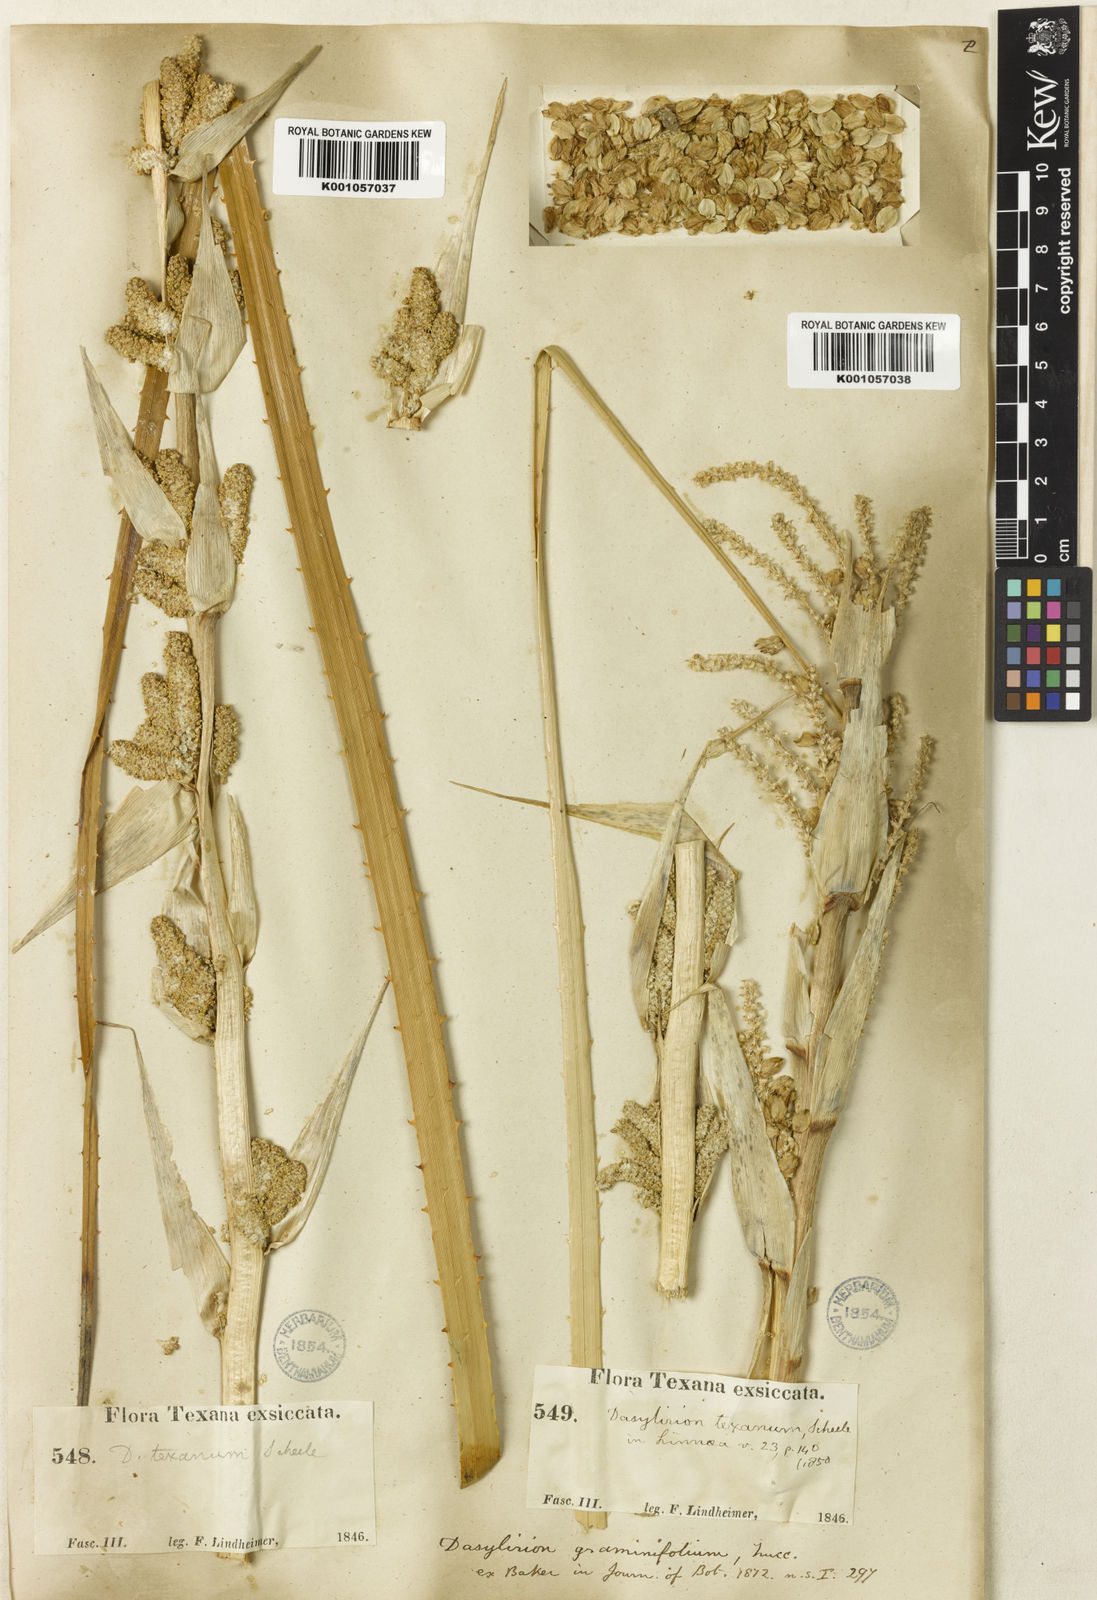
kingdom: Plantae
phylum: Tracheophyta
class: Liliopsida
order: Asparagales
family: Asparagaceae
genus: Dasylirion
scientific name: Dasylirion texanum
